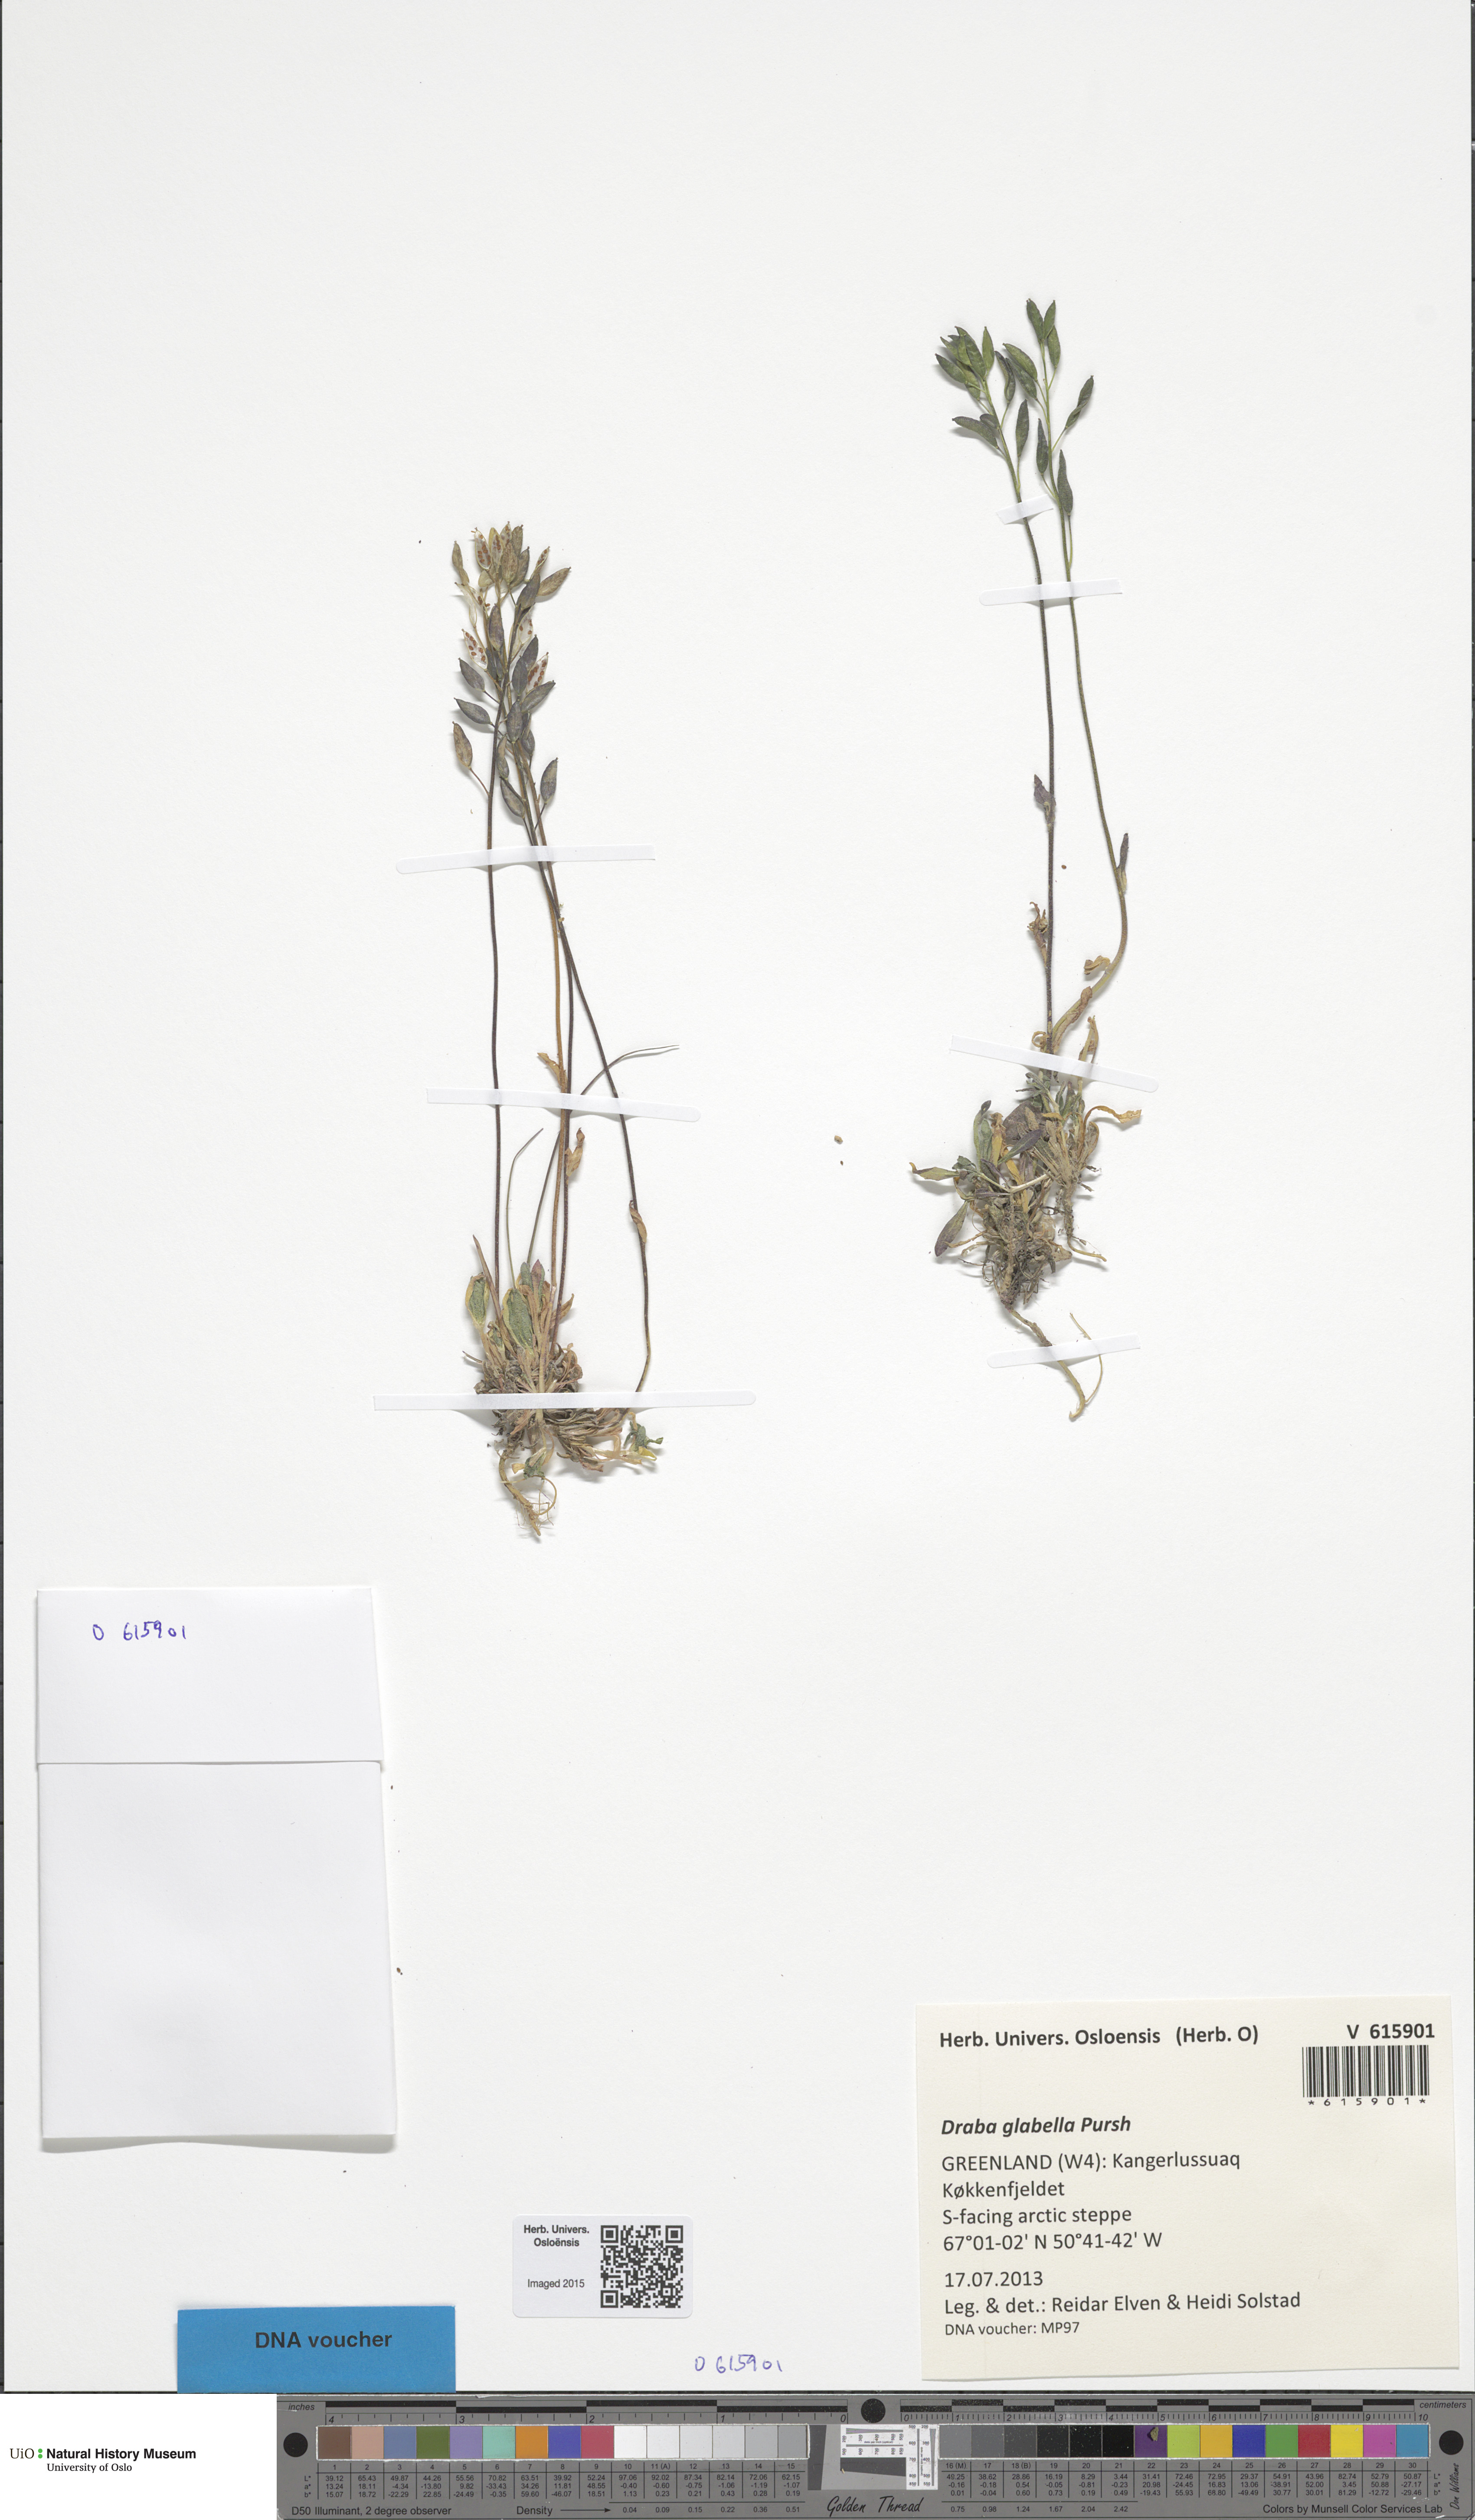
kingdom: Plantae
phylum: Tracheophyta
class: Magnoliopsida
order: Brassicales
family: Brassicaceae
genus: Draba
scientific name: Draba glabella
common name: Glaucous draba
